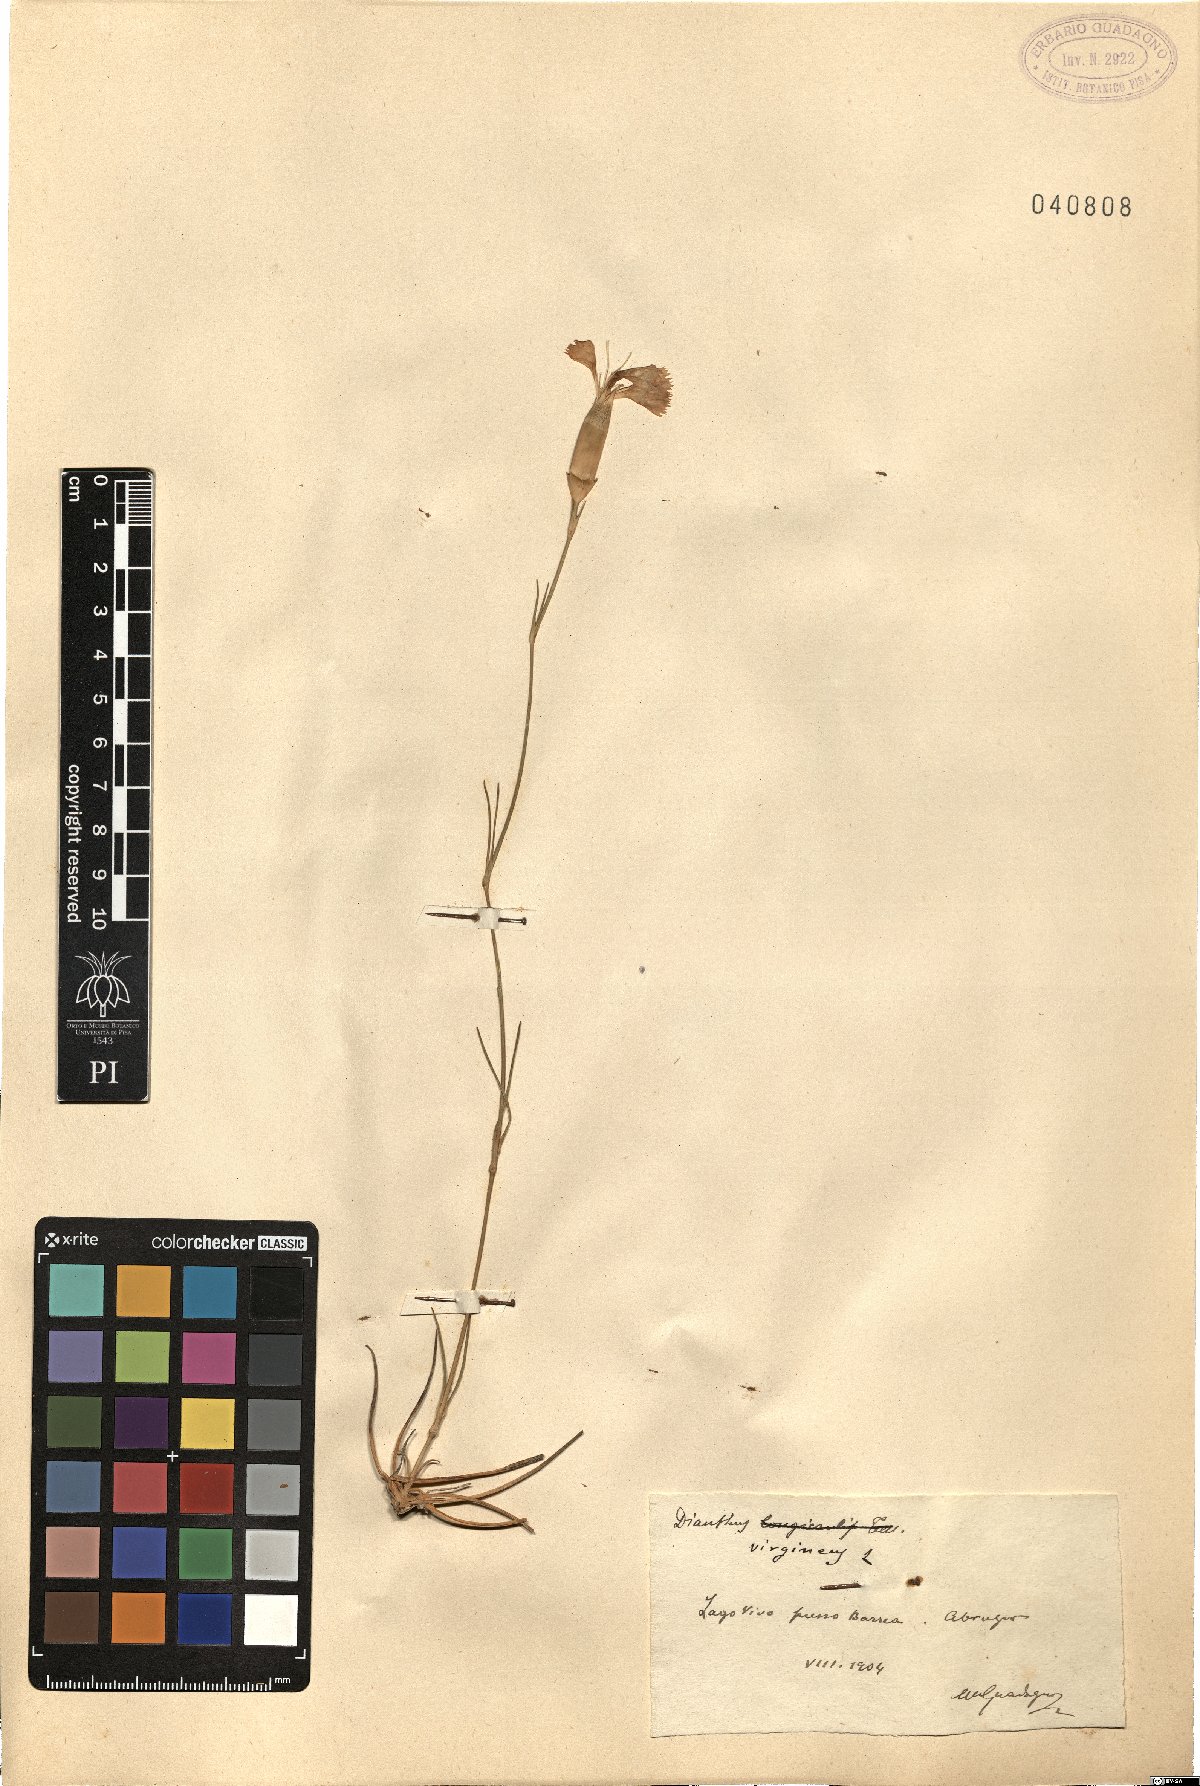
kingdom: Plantae
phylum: Tracheophyta
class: Magnoliopsida
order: Caryophyllales
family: Caryophyllaceae
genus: Dianthus
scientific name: Dianthus virgineus
